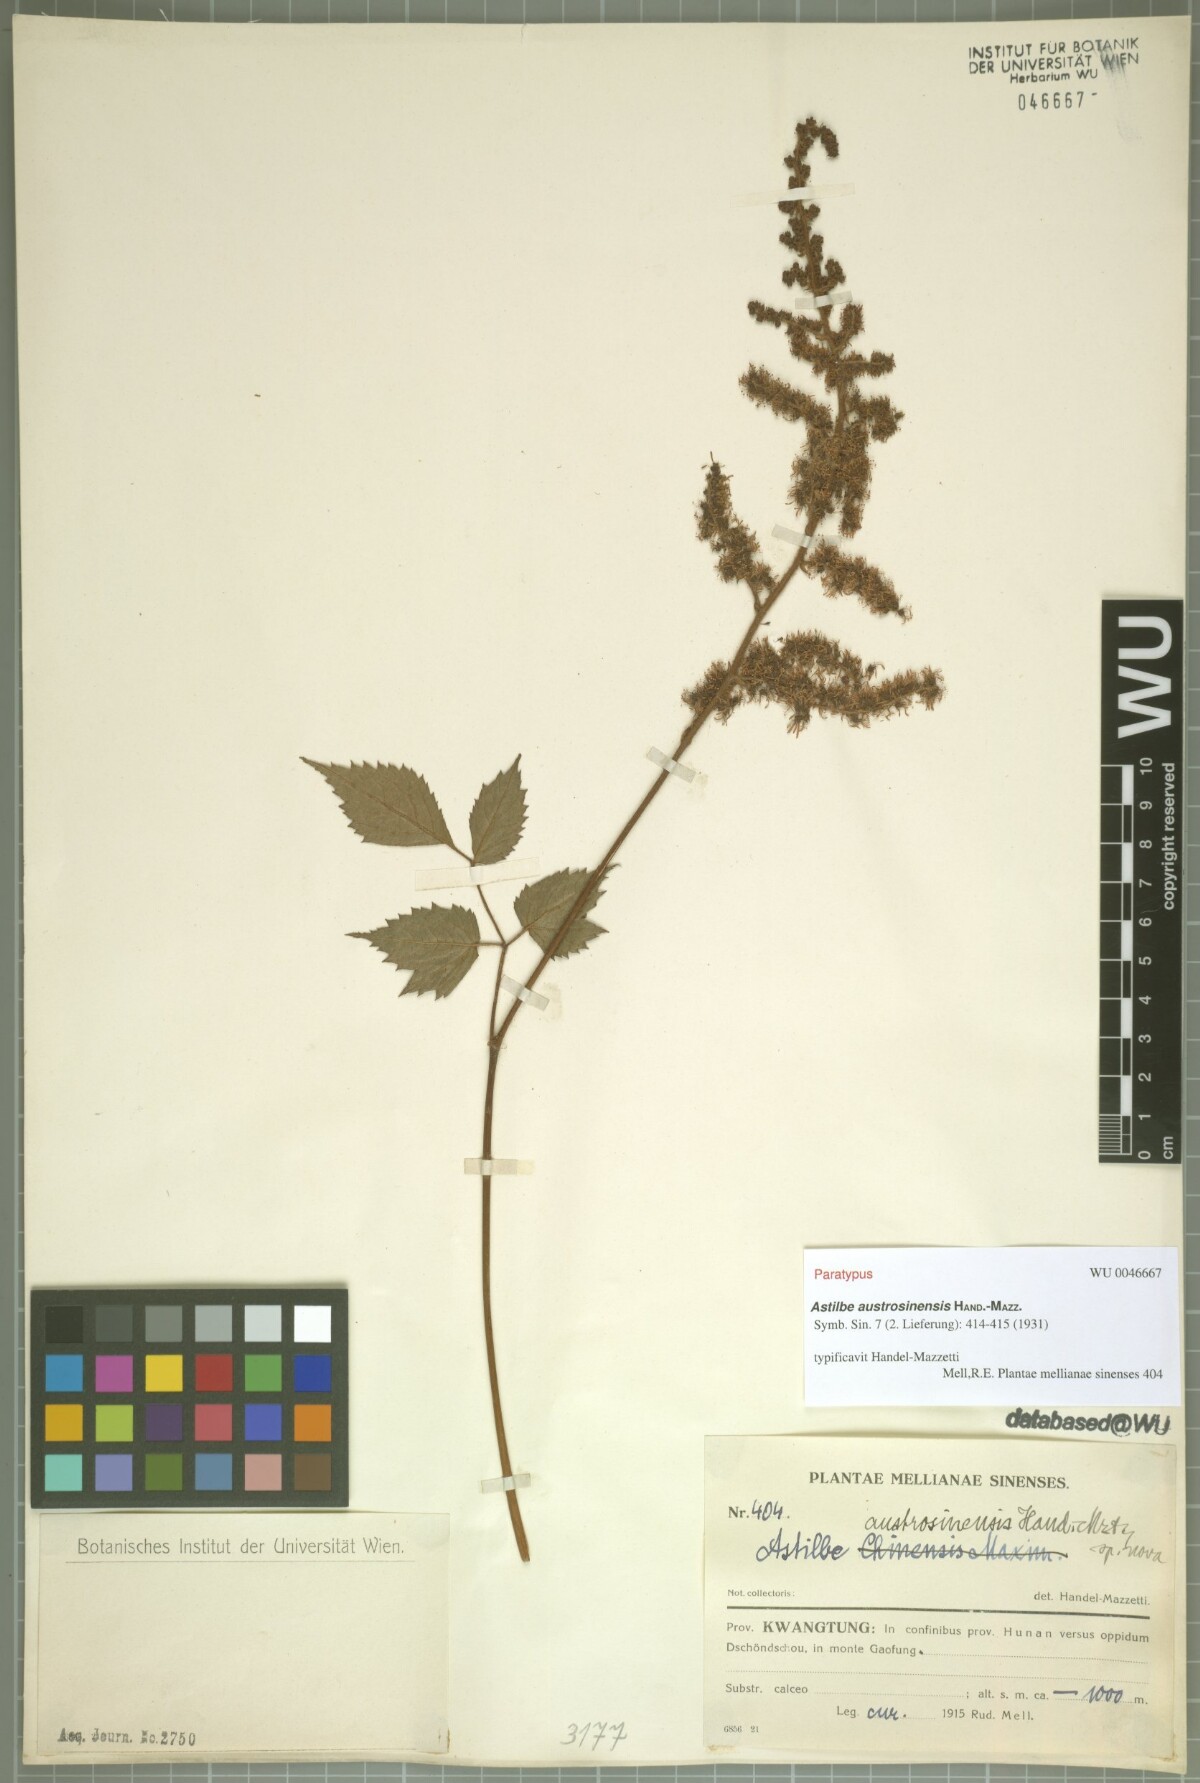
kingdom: Plantae
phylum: Tracheophyta
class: Magnoliopsida
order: Saxifragales
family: Saxifragaceae
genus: Astilbe
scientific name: Astilbe grandis
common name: Korean astilbe
